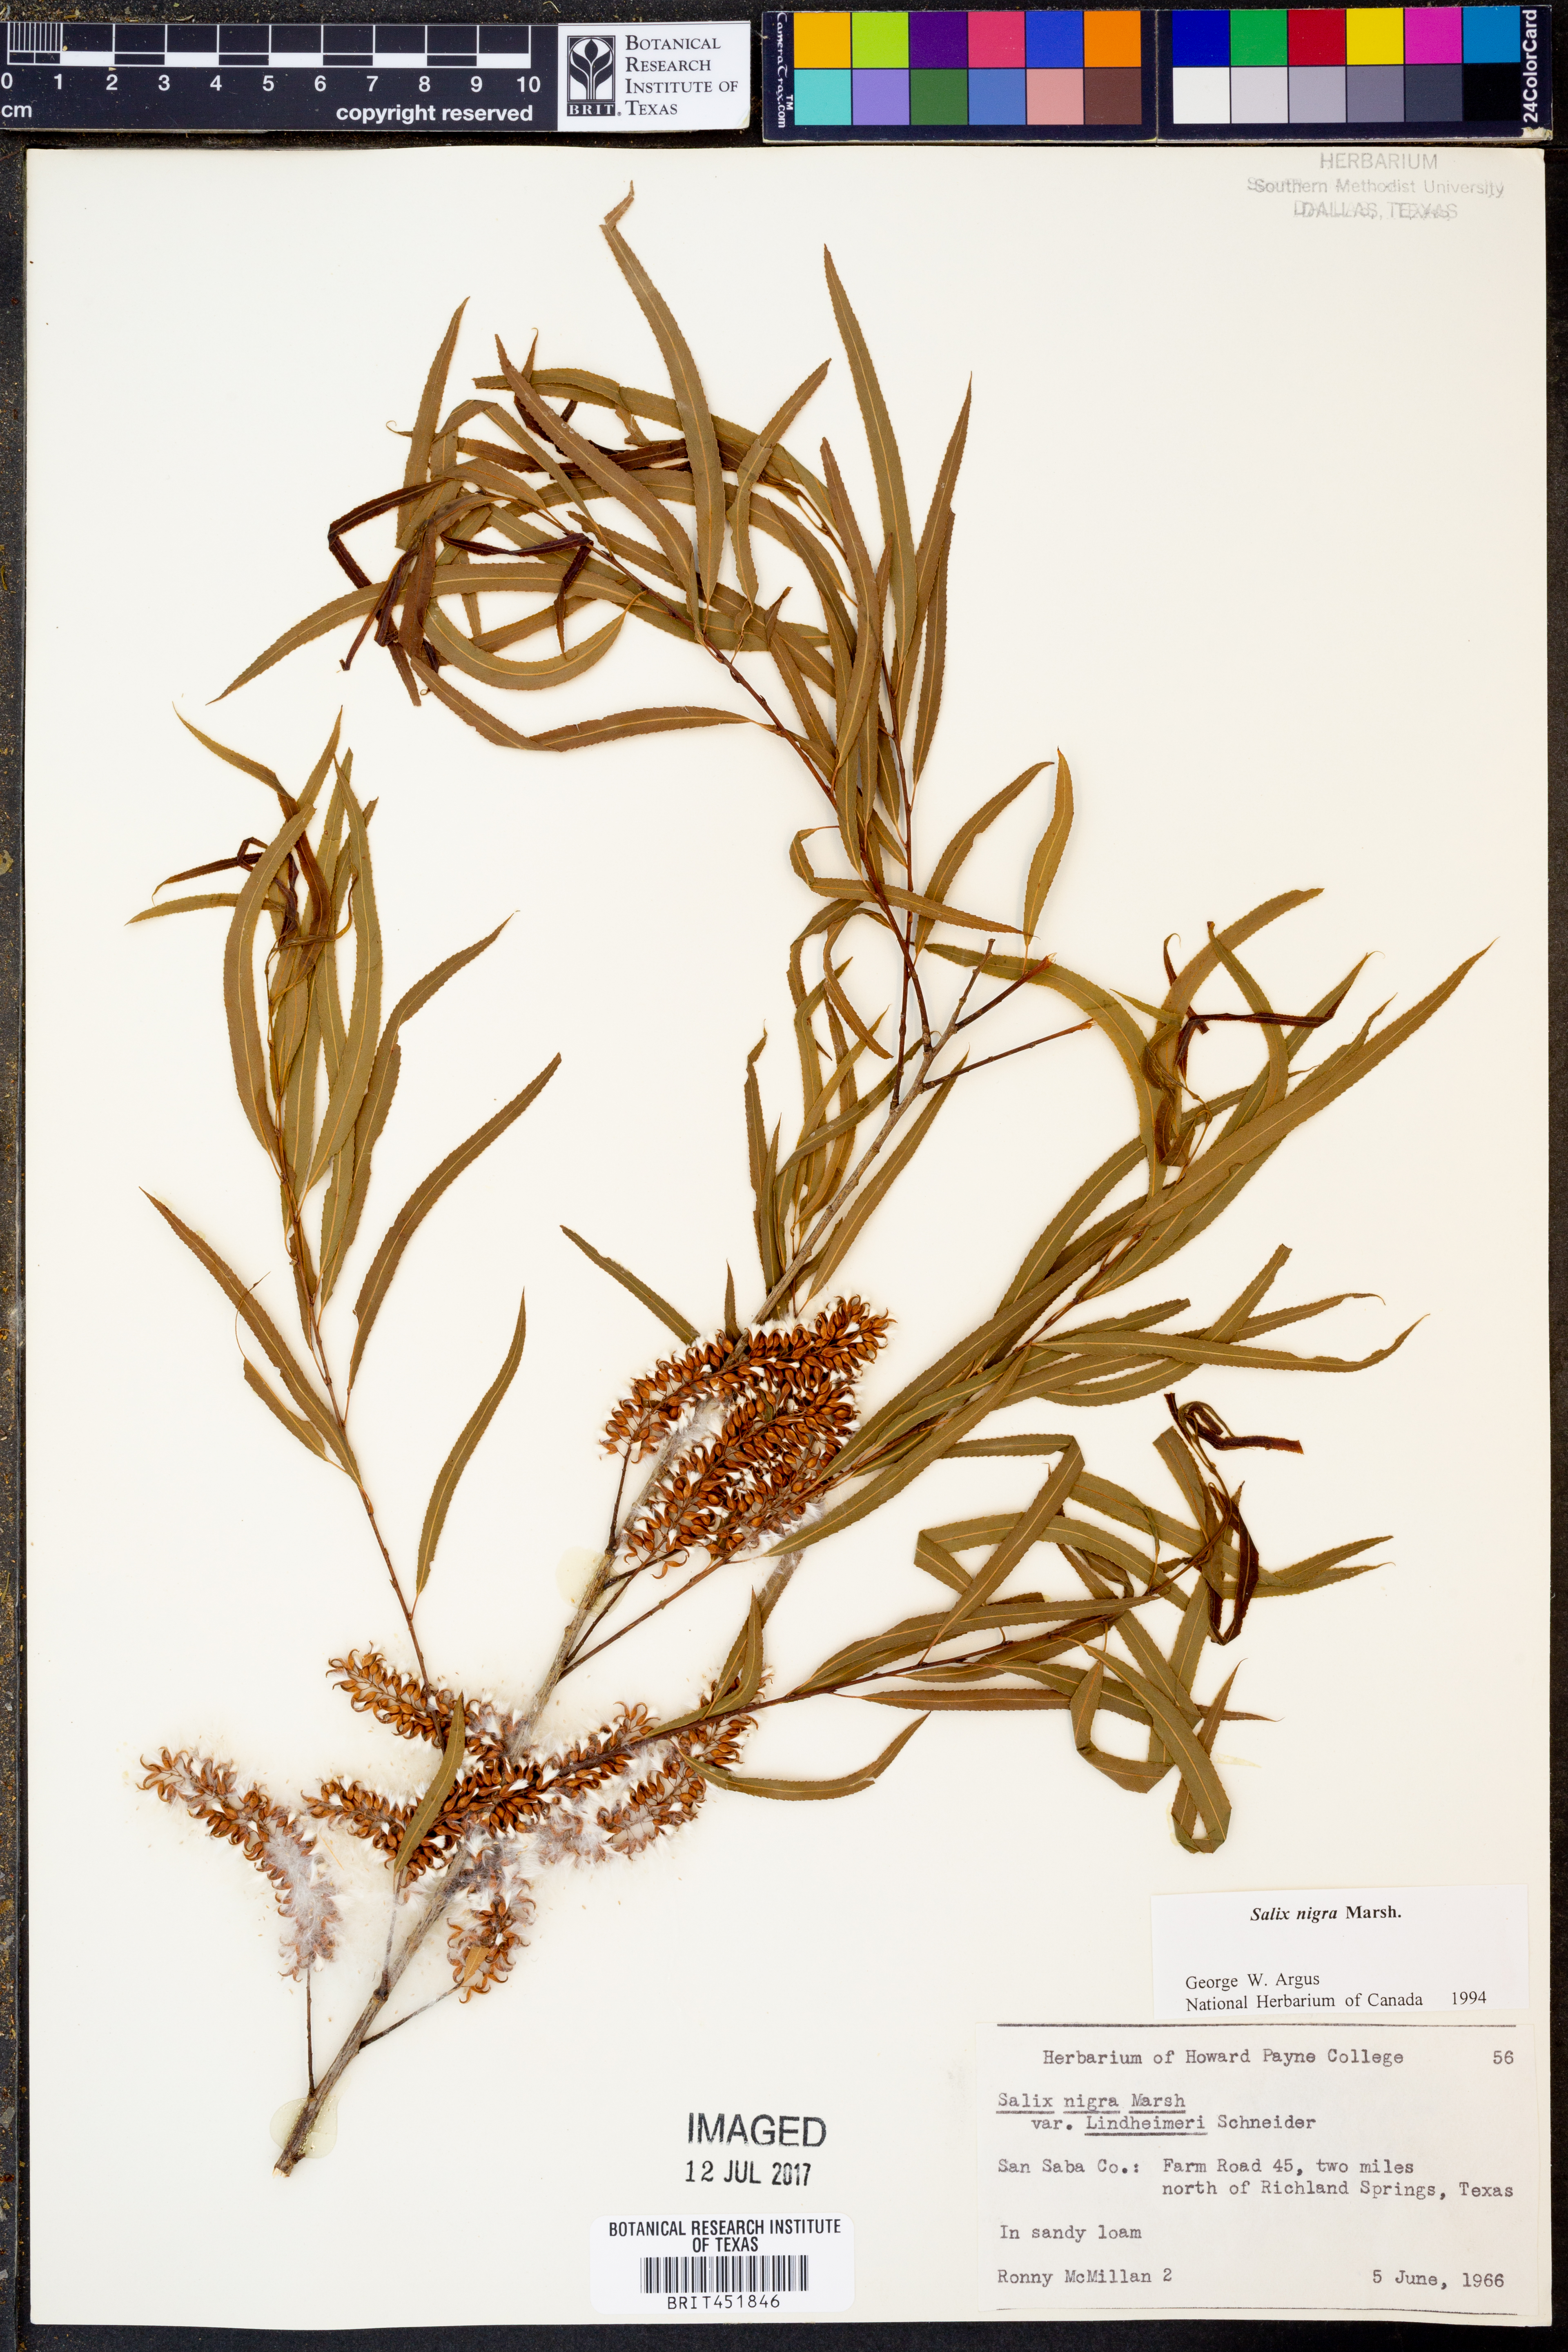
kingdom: Plantae
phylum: Tracheophyta
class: Magnoliopsida
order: Malpighiales
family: Salicaceae
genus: Salix
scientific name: Salix nigra
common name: Black willow
